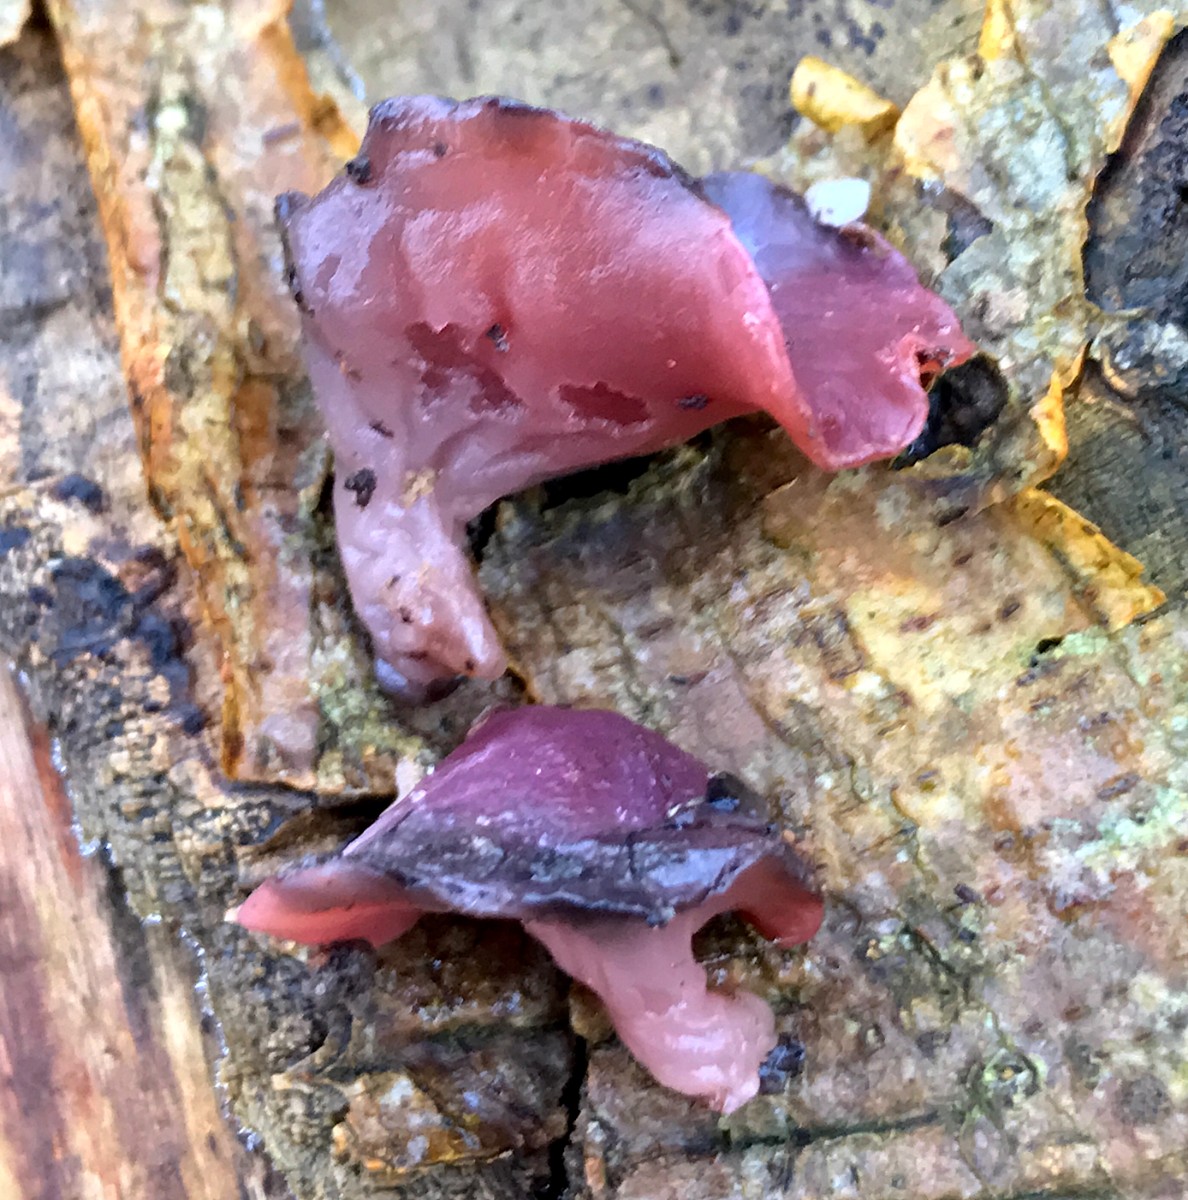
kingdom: Fungi
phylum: Ascomycota
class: Leotiomycetes
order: Helotiales
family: Gelatinodiscaceae
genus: Ascocoryne
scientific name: Ascocoryne cylichnium
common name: stor sejskive
